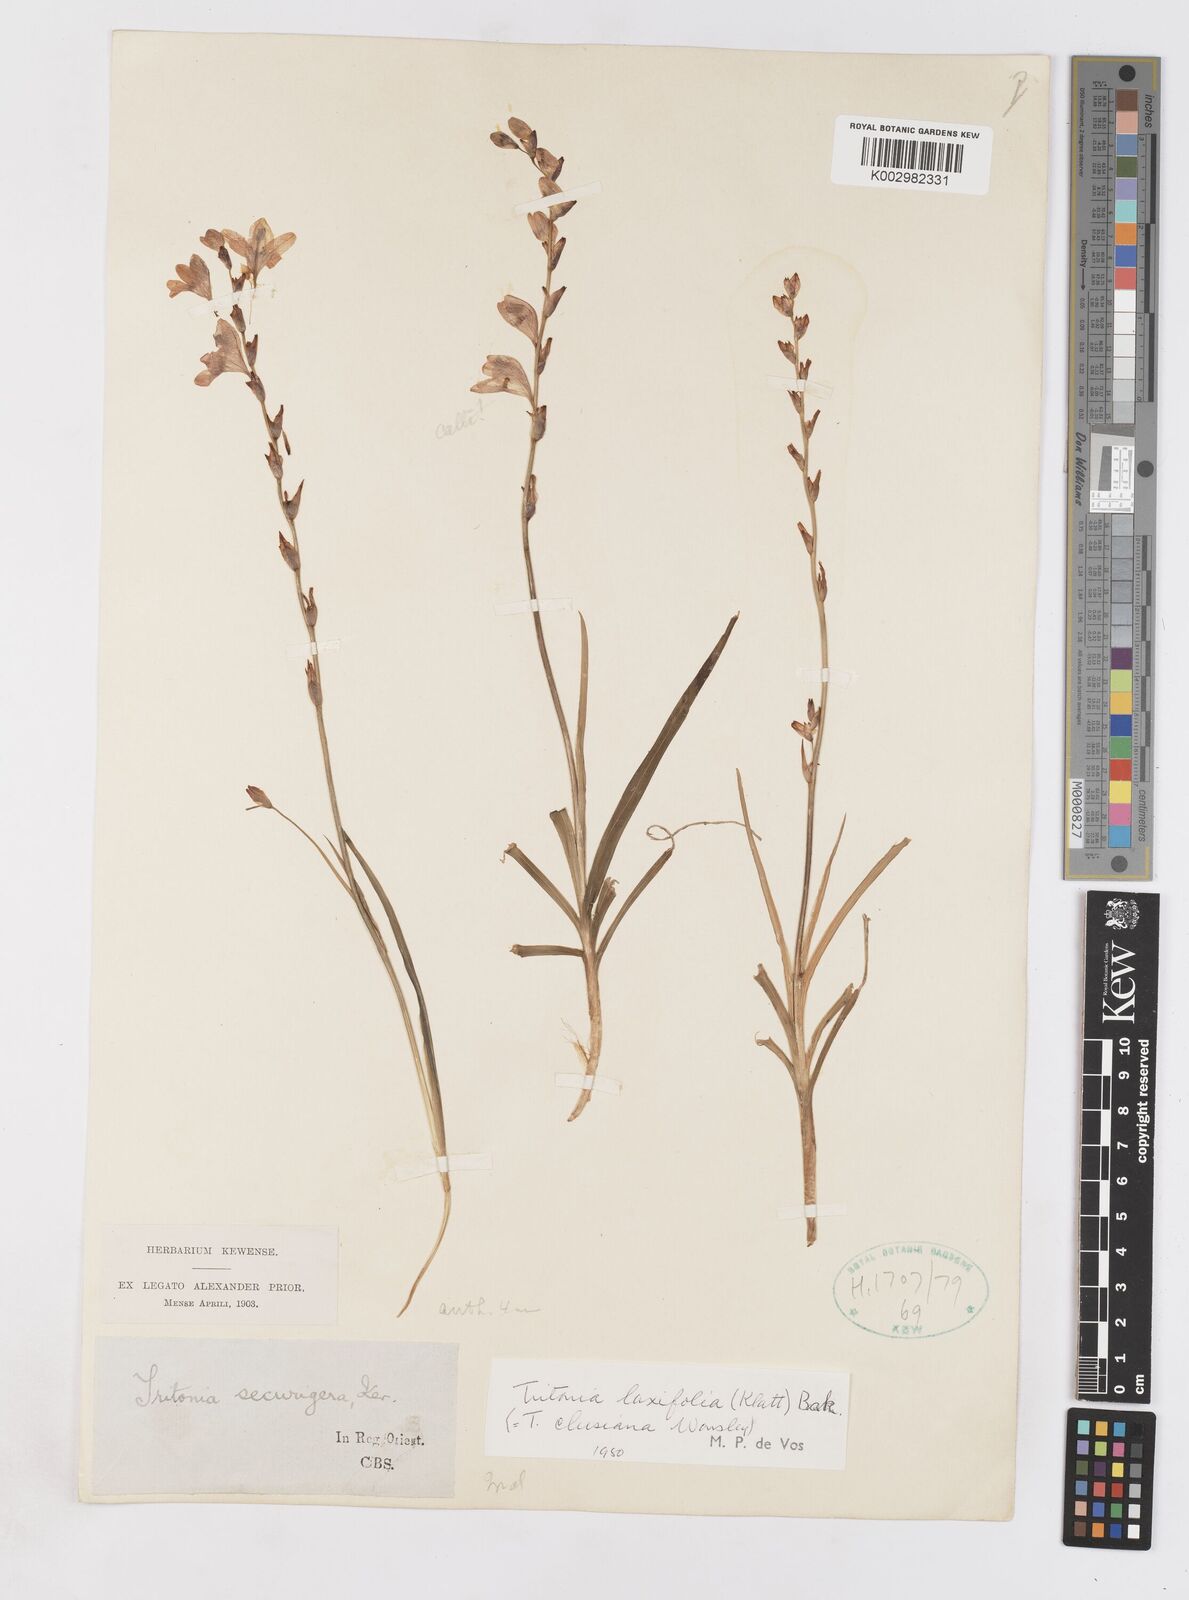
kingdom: Plantae
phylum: Tracheophyta
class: Liliopsida
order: Asparagales
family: Iridaceae
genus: Tritonia
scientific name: Tritonia laxifolia
